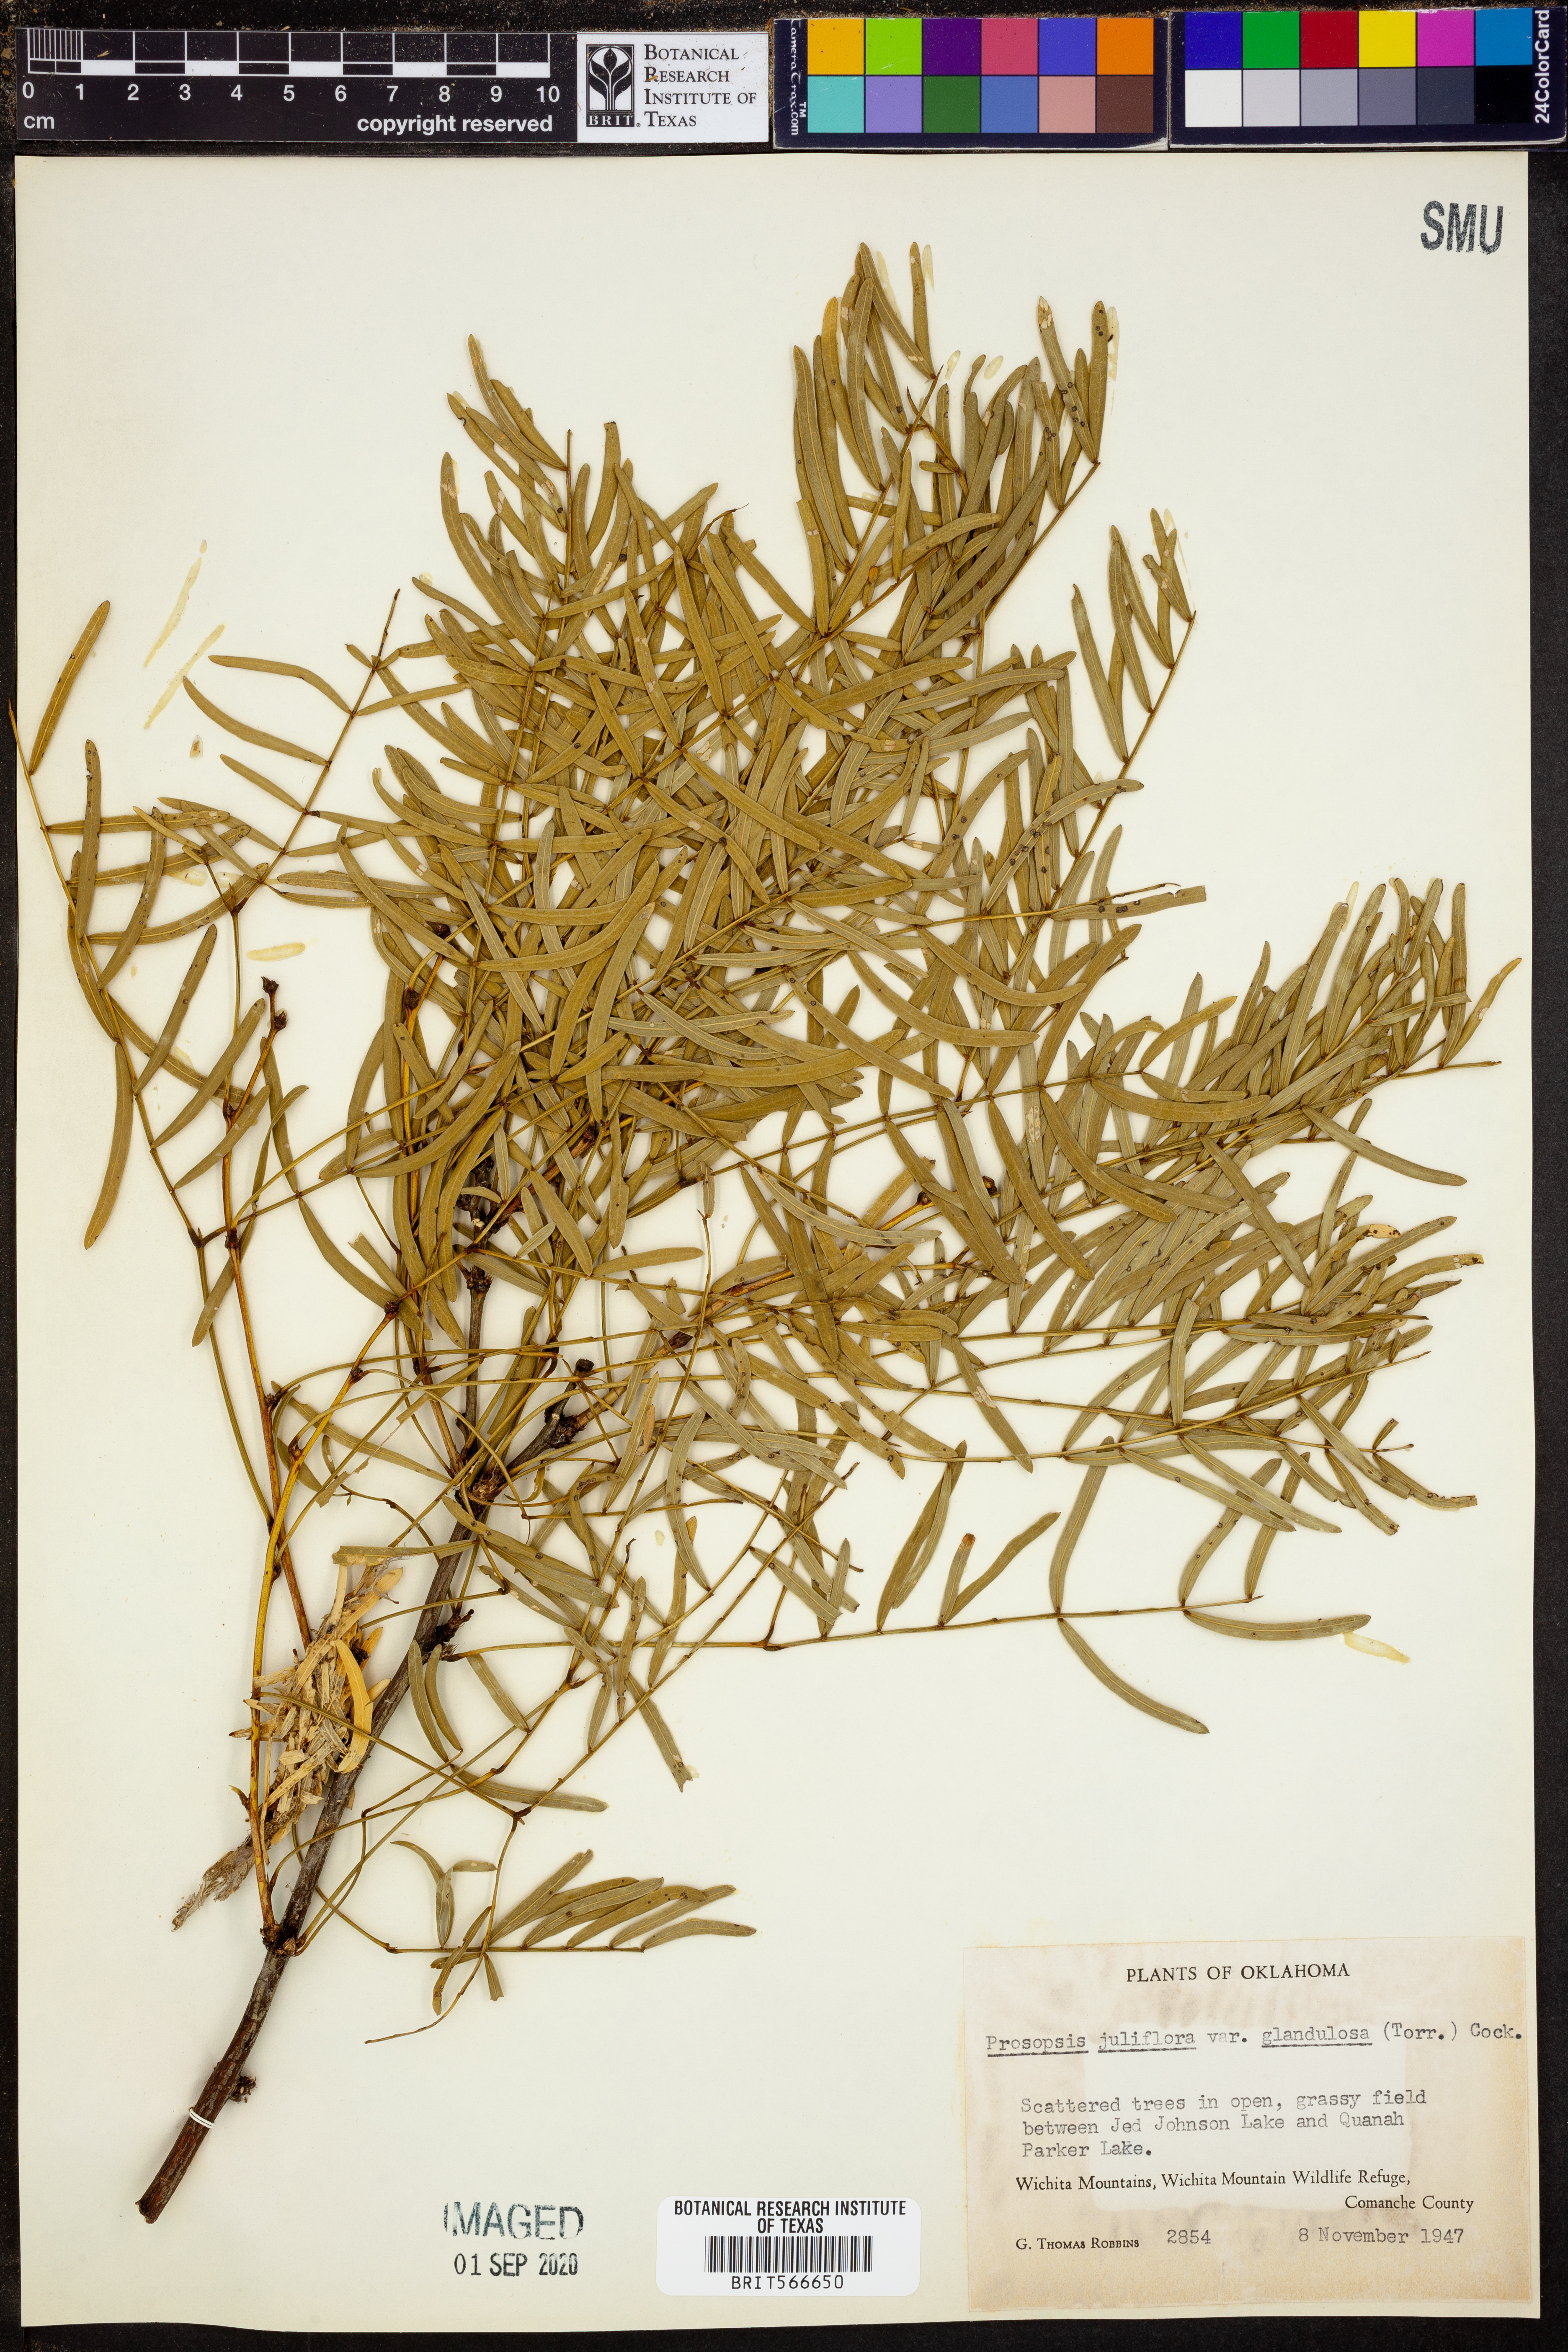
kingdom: Plantae
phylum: Tracheophyta
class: Magnoliopsida
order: Fabales
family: Fabaceae
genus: Prosopis
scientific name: Prosopis glandulosa
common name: Honey mesquite
